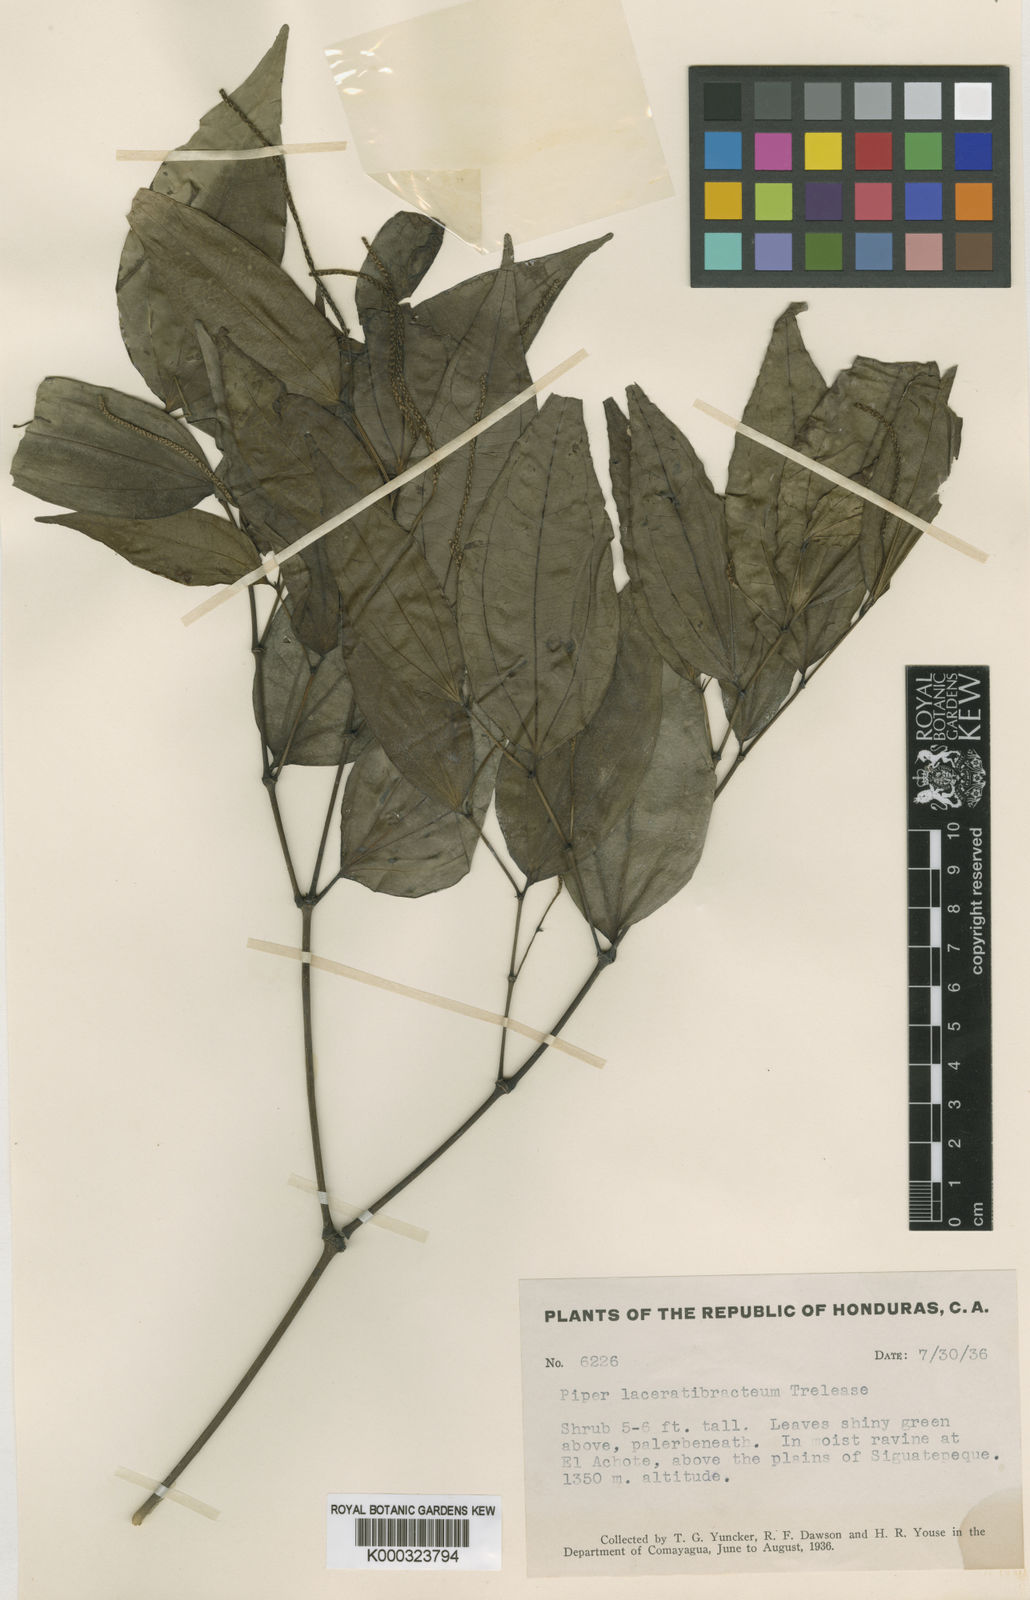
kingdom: Plantae
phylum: Tracheophyta
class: Magnoliopsida
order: Piperales
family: Piperaceae
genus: Piper
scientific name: Piper uhdei
